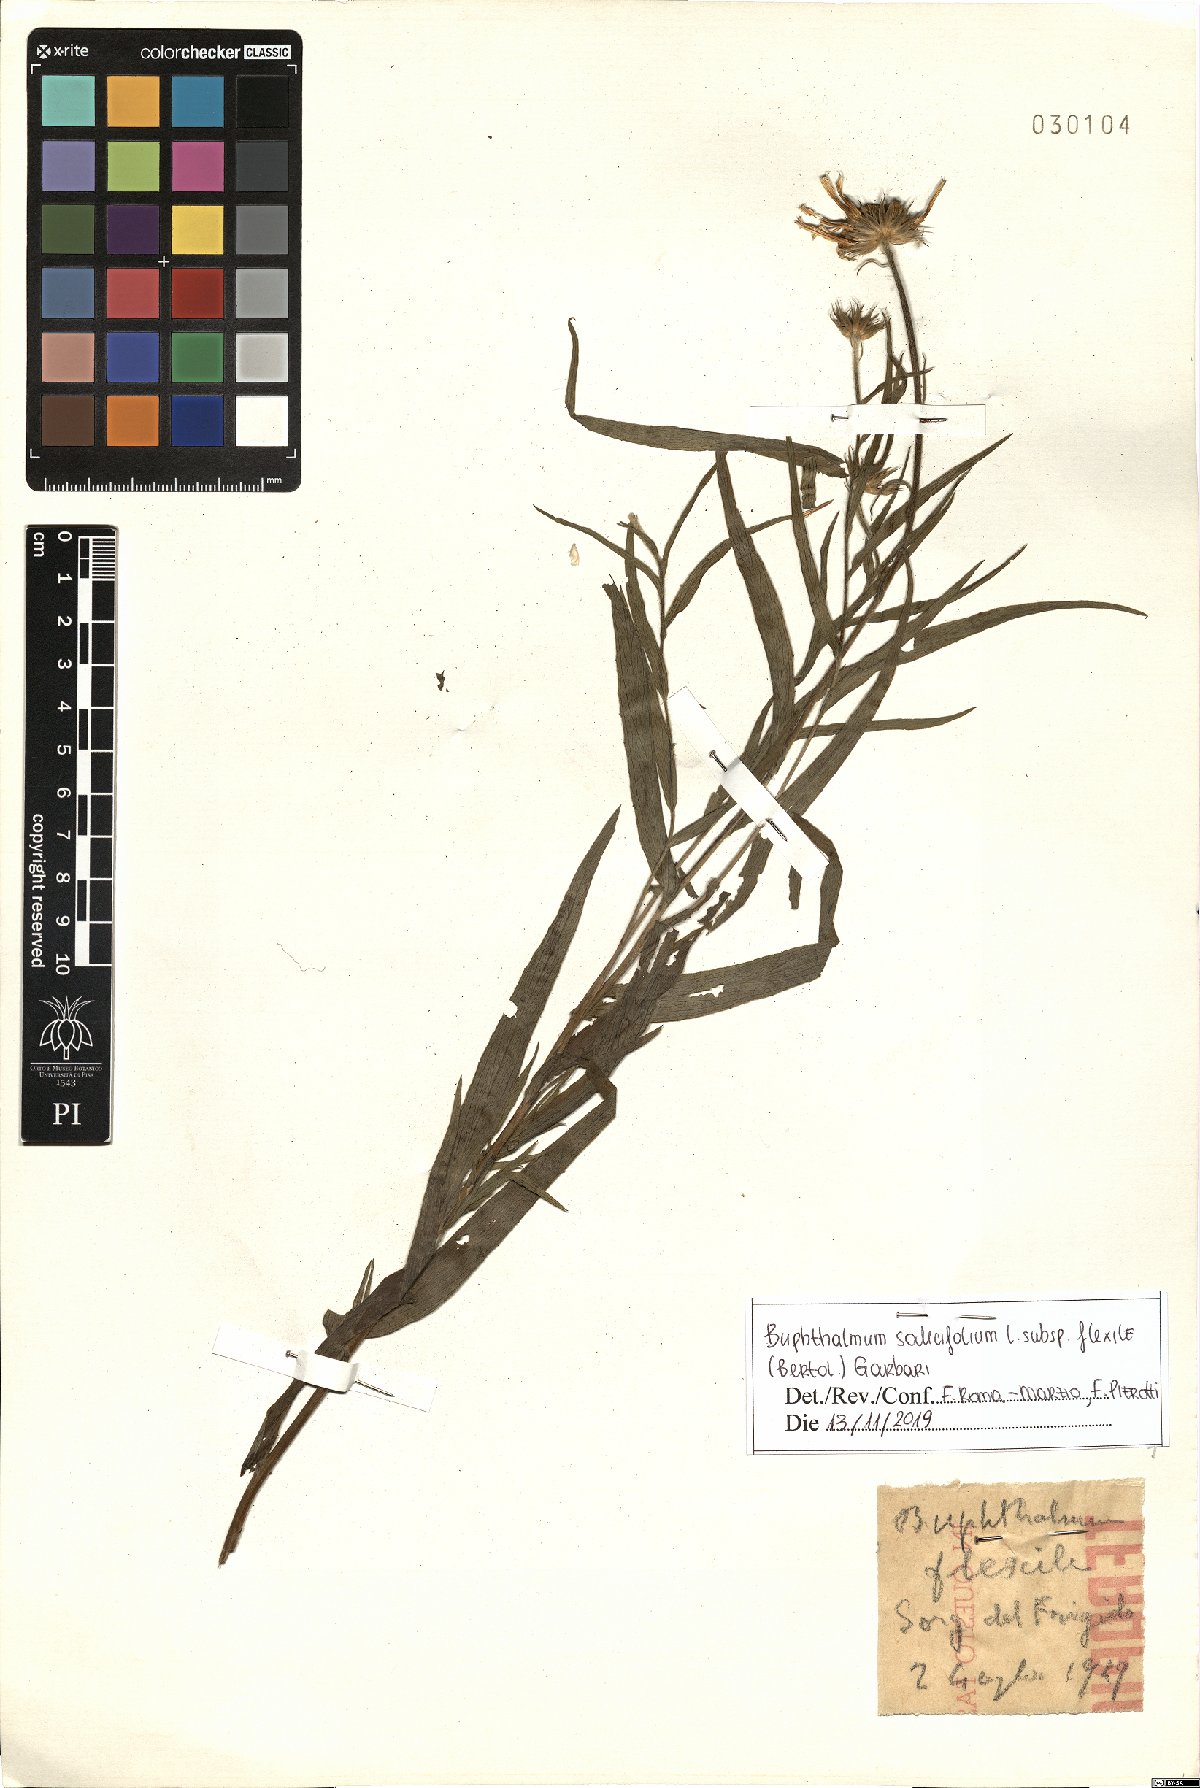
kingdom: Plantae
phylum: Tracheophyta
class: Magnoliopsida
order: Asterales
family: Asteraceae
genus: Buphthalmum
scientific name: Buphthalmum salicifolium
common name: Willow-leaved yellow-oxeye
